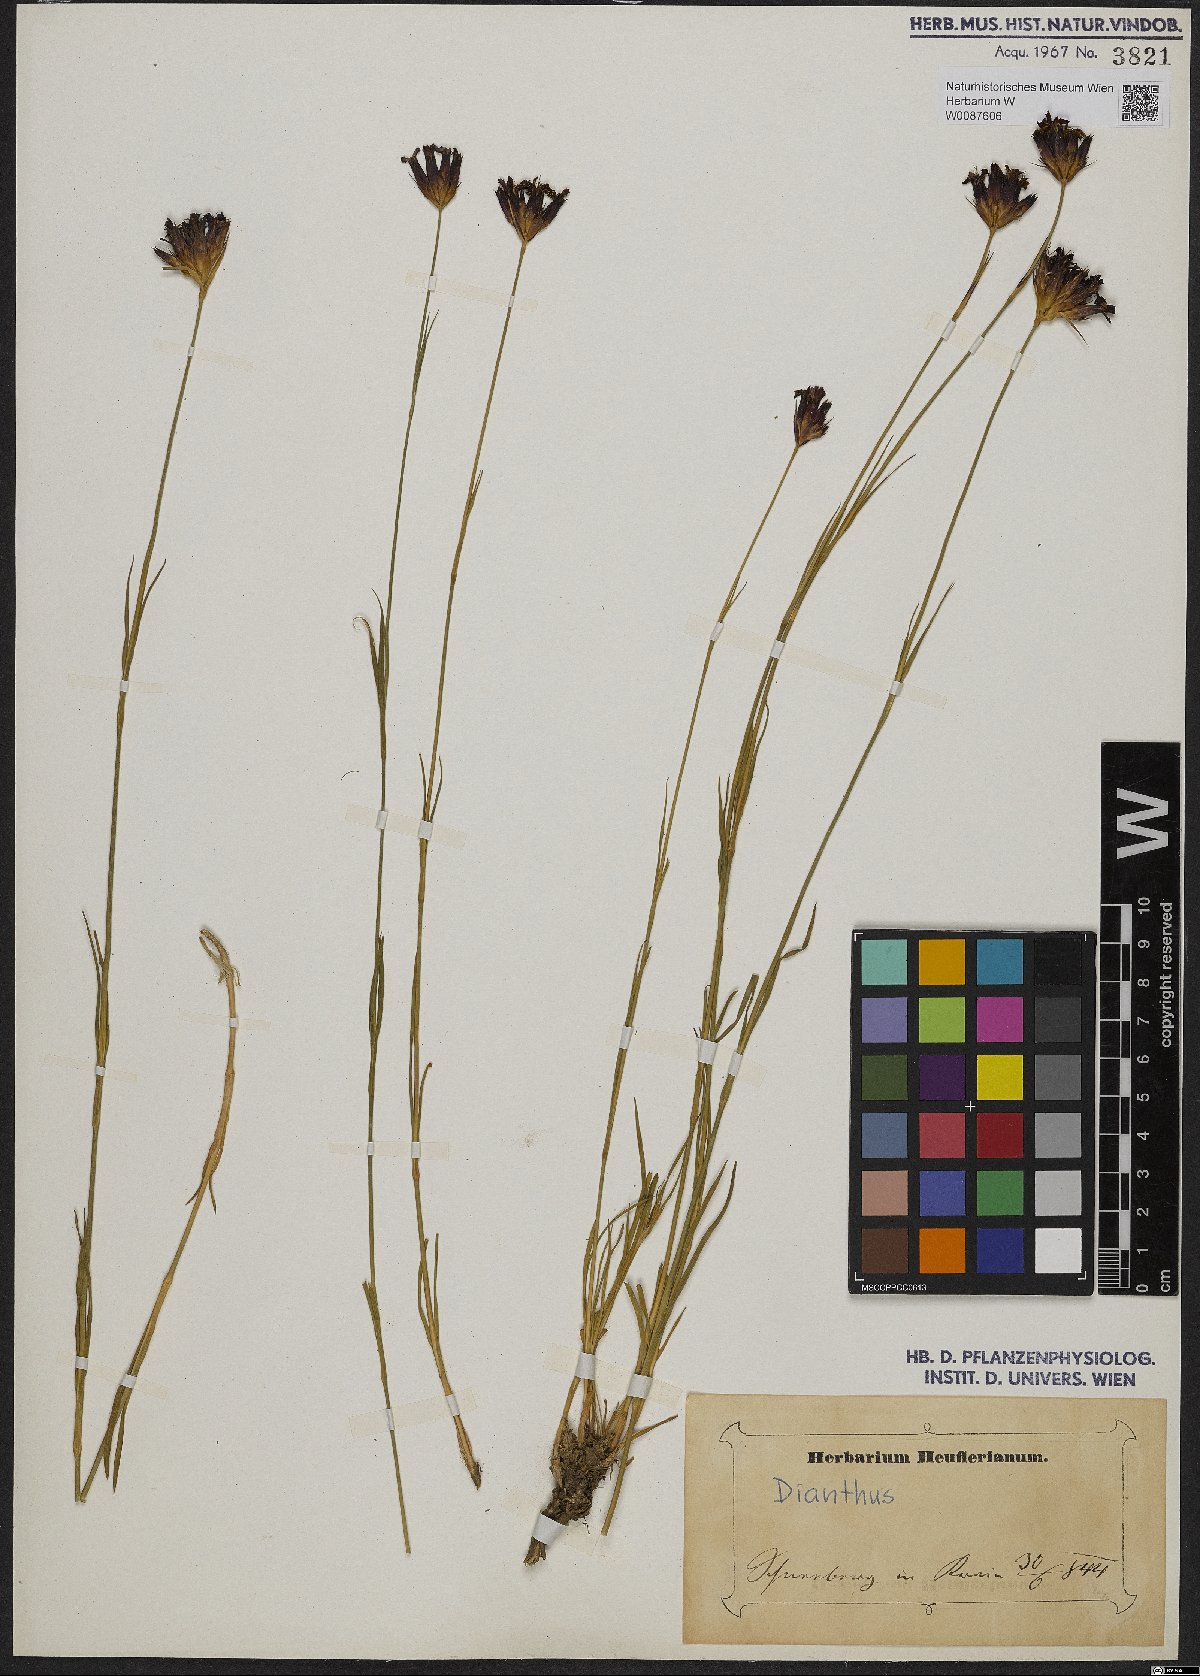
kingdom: Plantae
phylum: Tracheophyta
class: Magnoliopsida
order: Caryophyllales
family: Caryophyllaceae
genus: Dianthus
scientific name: Dianthus
